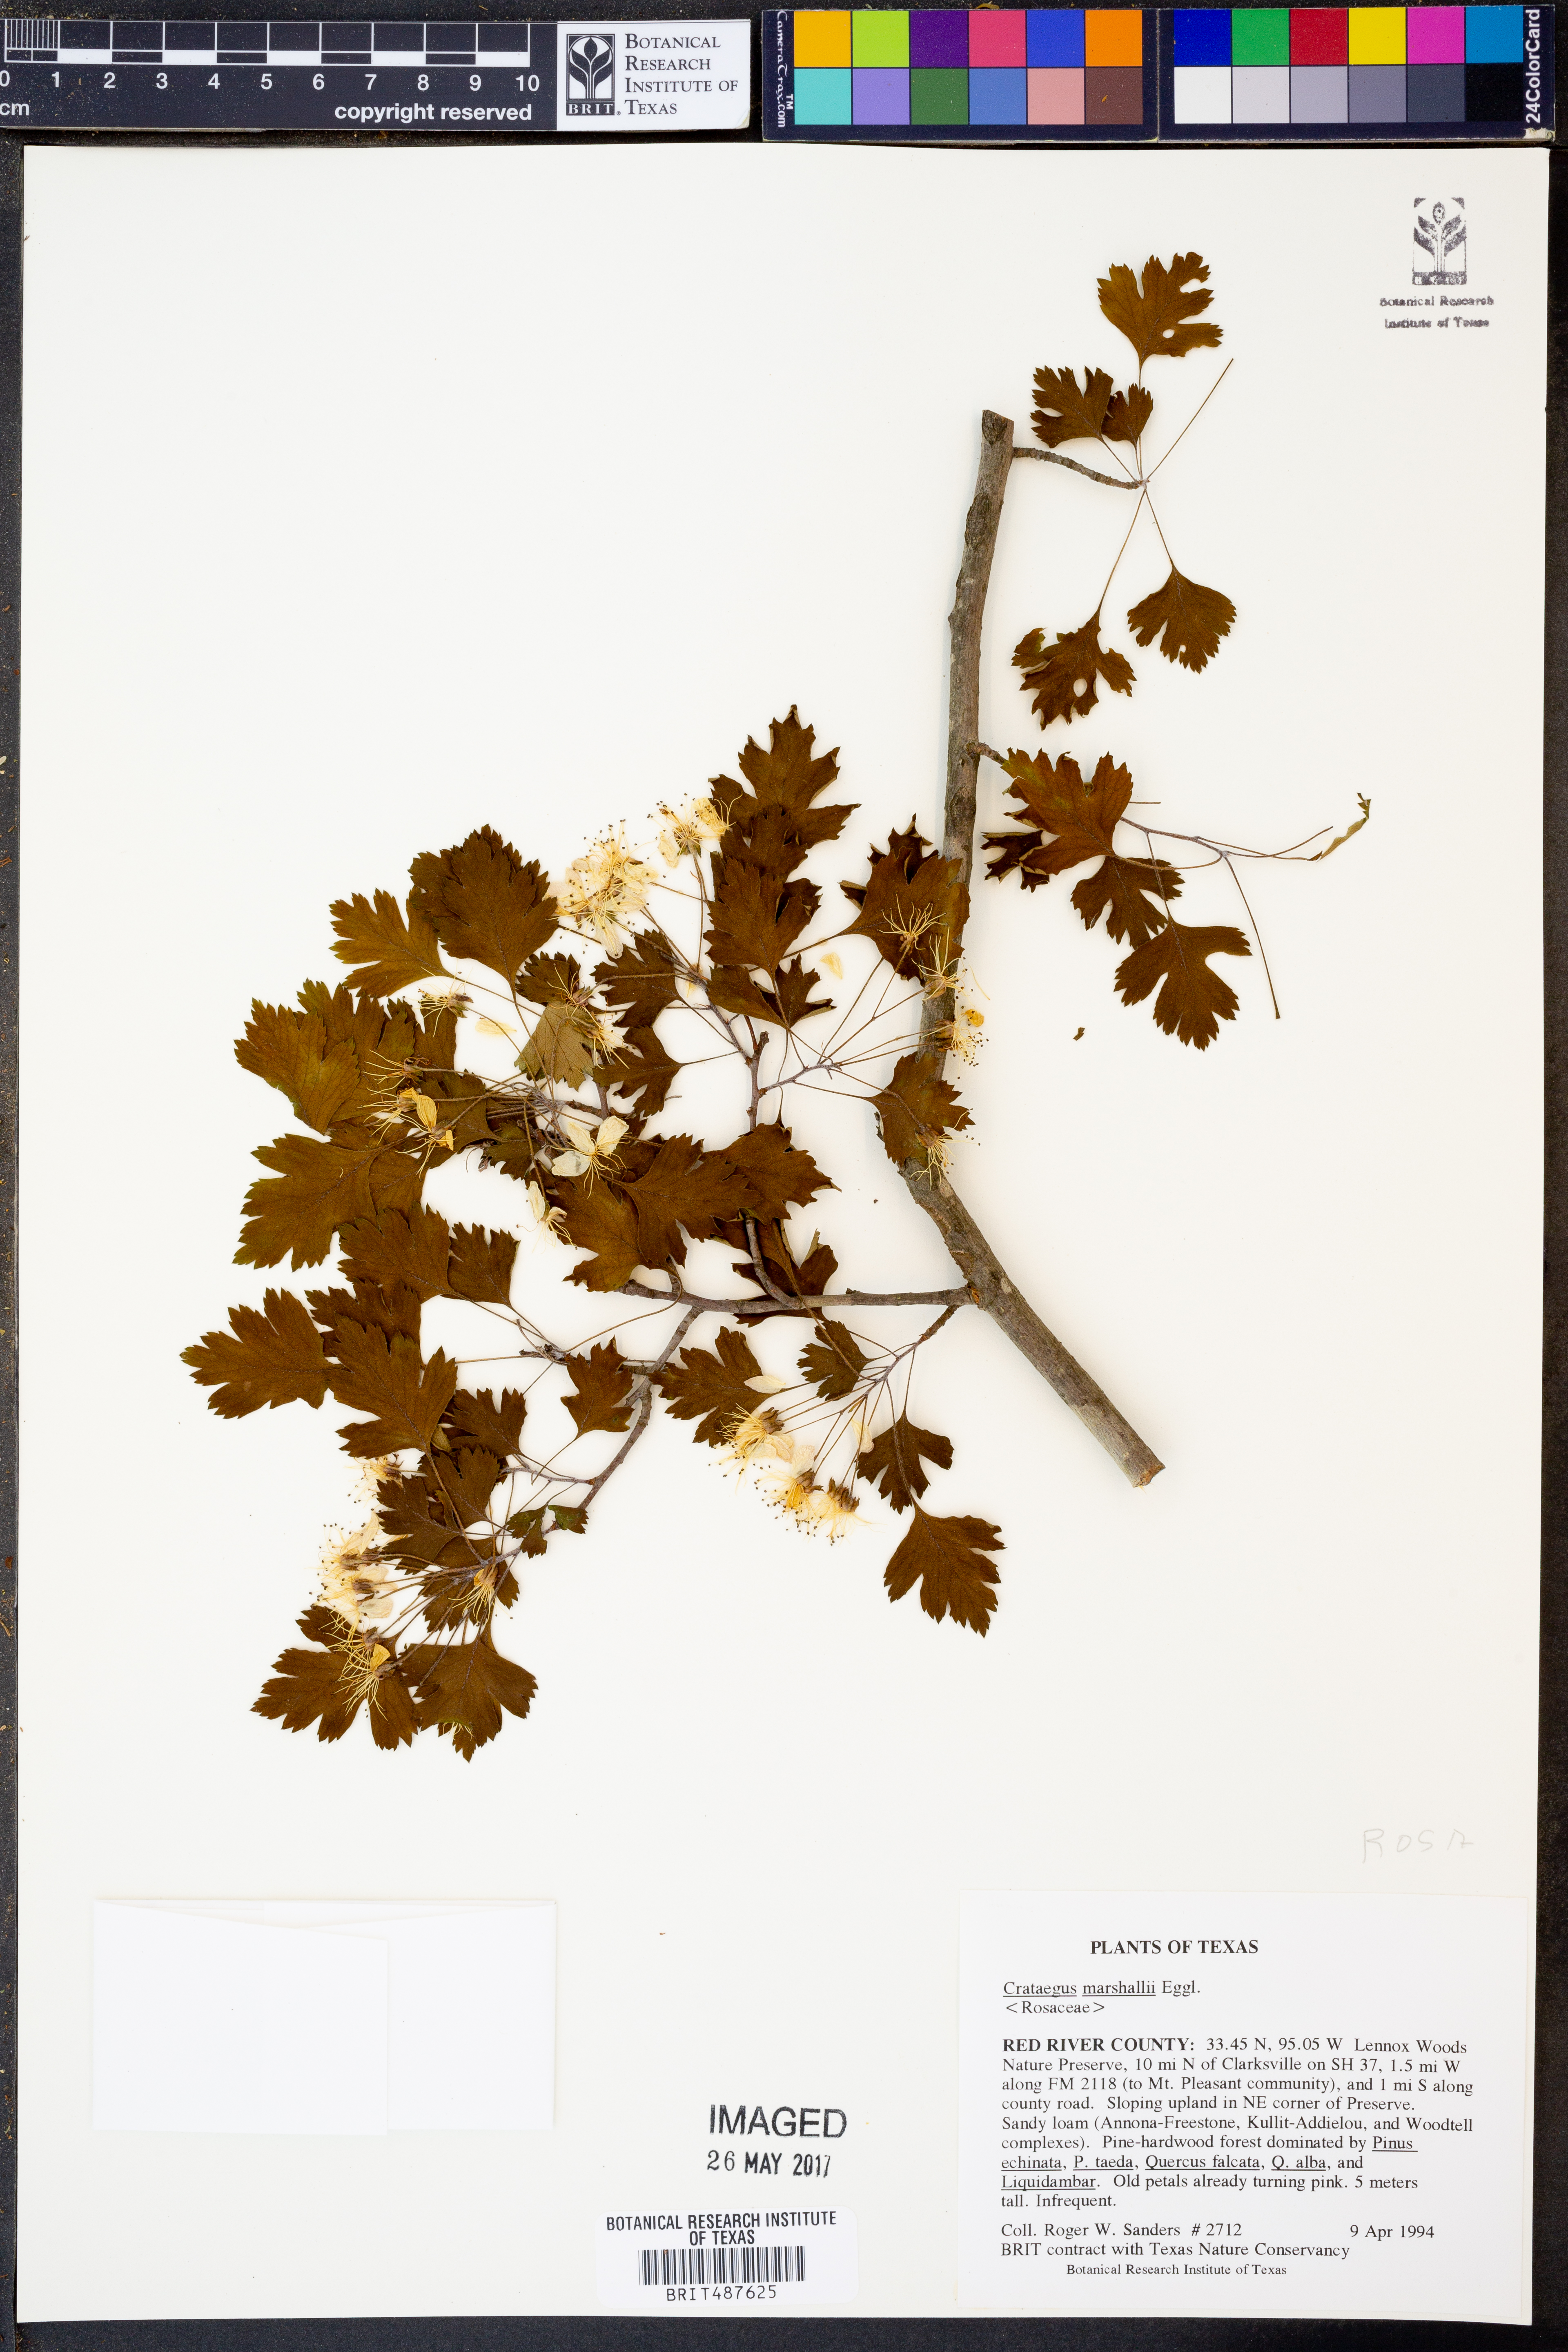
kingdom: Plantae
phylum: Tracheophyta
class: Magnoliopsida
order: Rosales
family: Rosaceae
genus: Crataegus
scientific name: Crataegus marshallii
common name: Parsley-hawthorn
